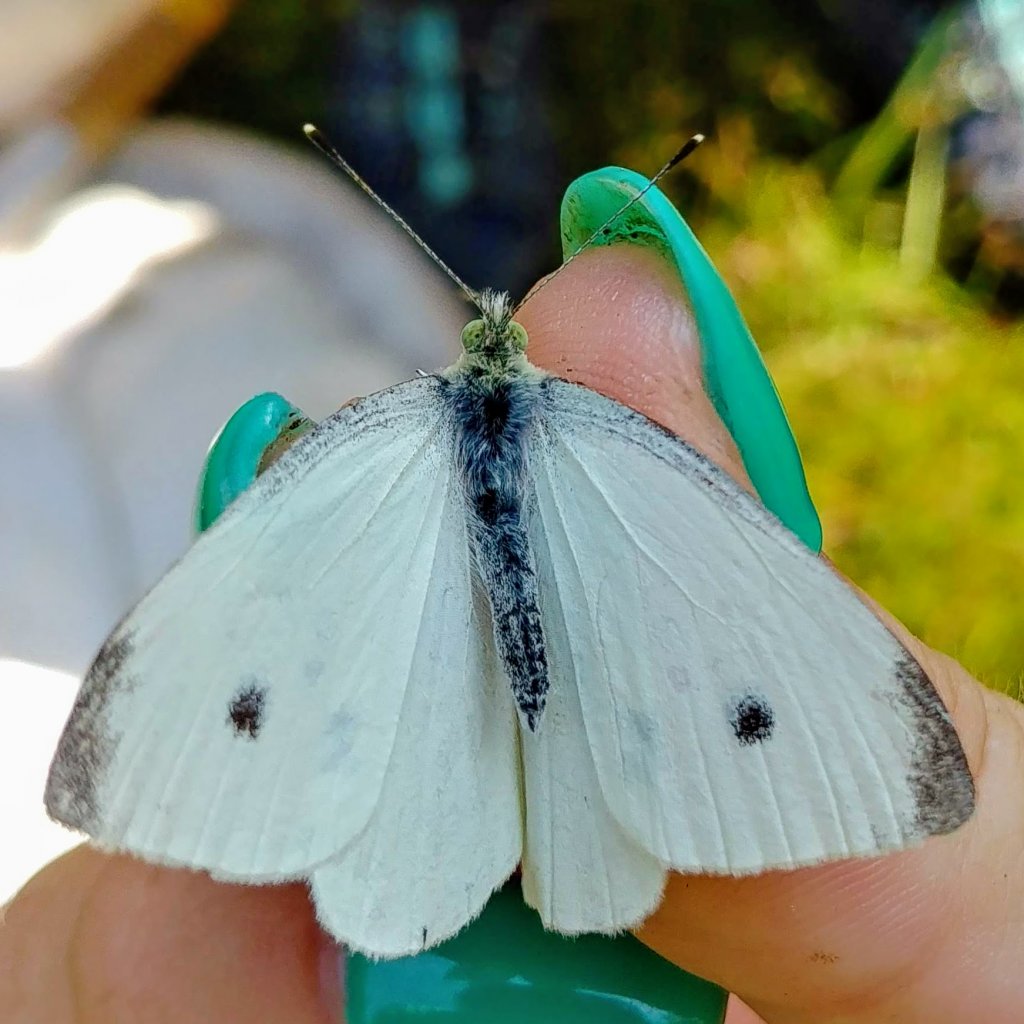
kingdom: Animalia
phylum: Arthropoda
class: Insecta
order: Lepidoptera
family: Pieridae
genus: Pieris
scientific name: Pieris rapae
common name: Cabbage White
